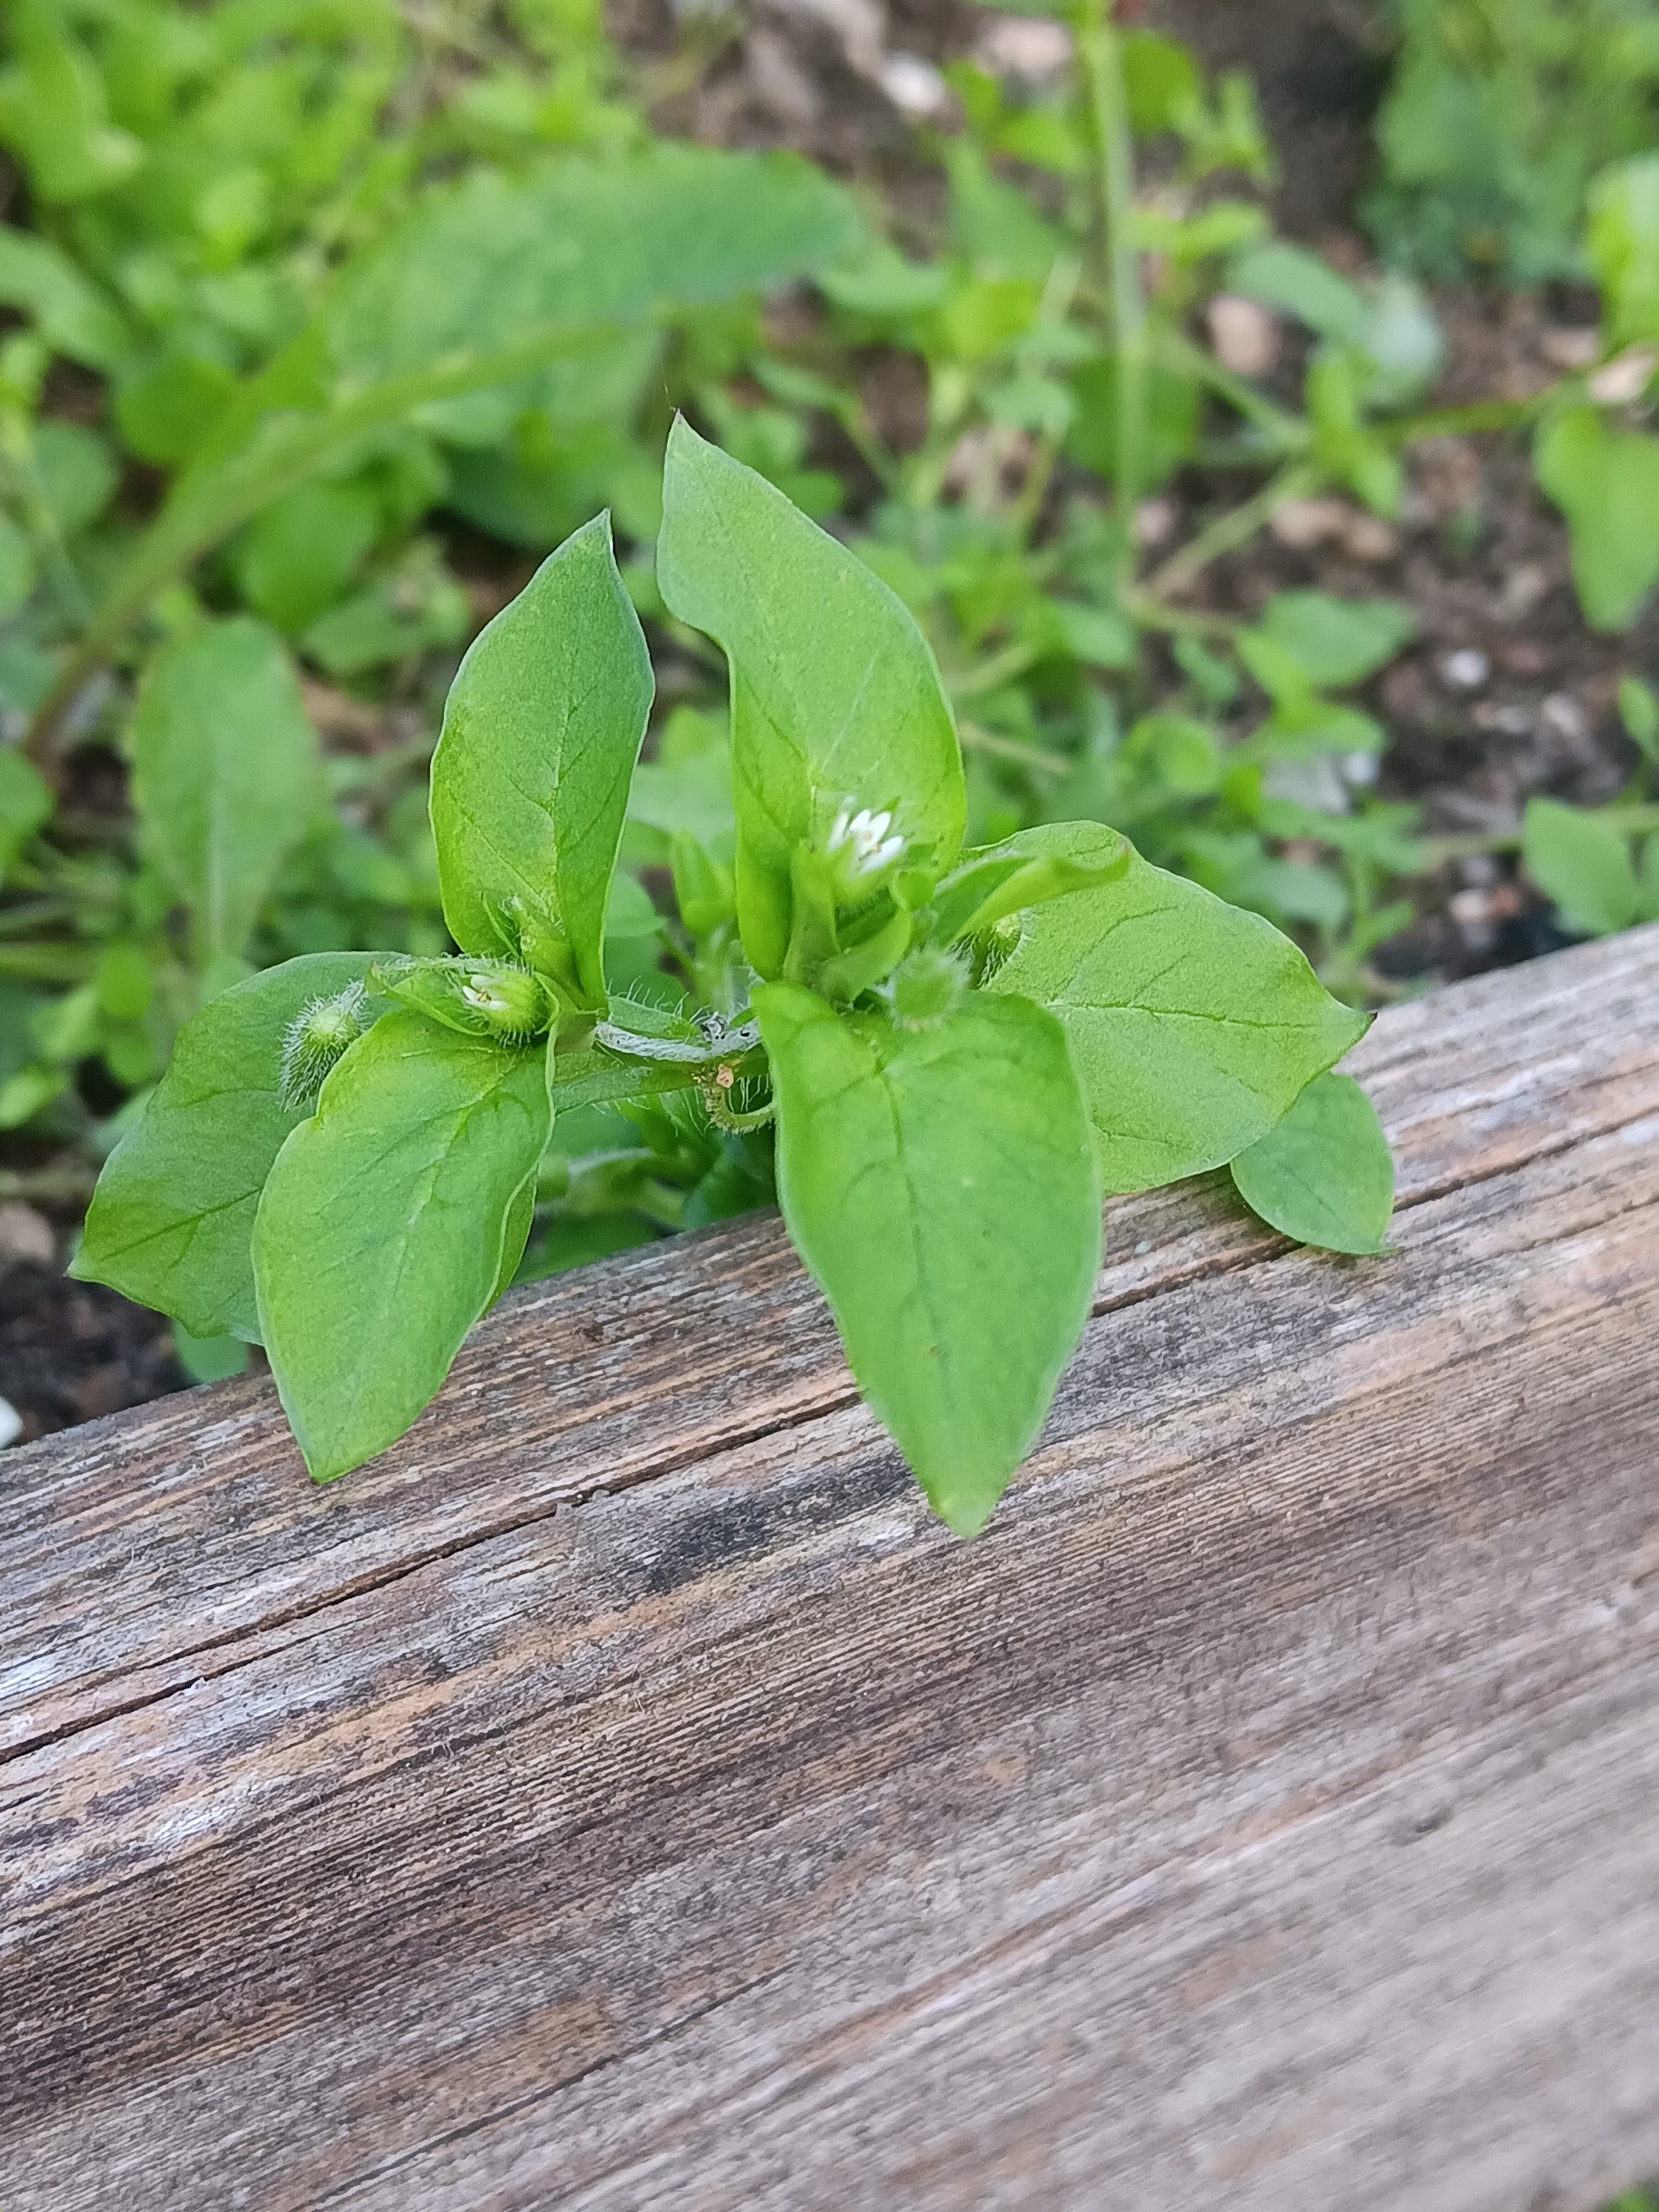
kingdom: Plantae
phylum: Tracheophyta
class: Magnoliopsida
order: Caryophyllales
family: Caryophyllaceae
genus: Stellaria
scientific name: Stellaria media
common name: Almindelig fuglegræs
